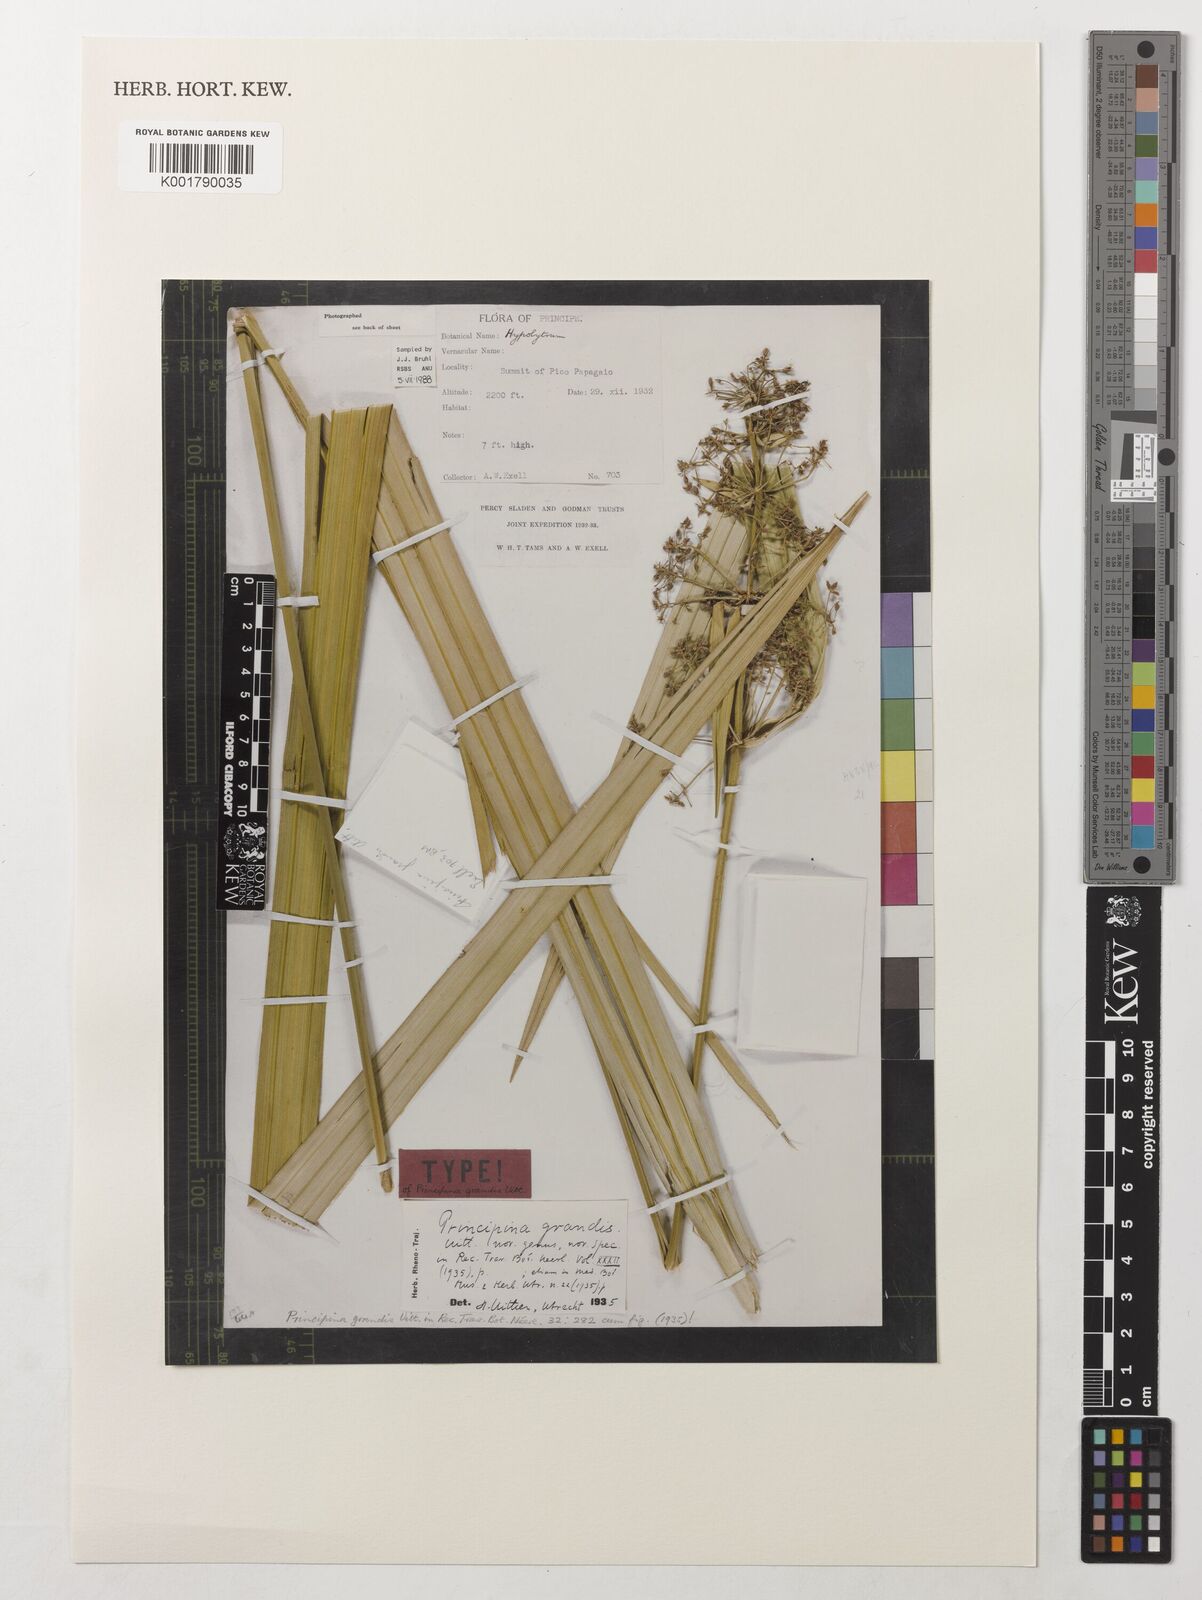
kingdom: Plantae
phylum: Tracheophyta
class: Liliopsida
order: Poales
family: Cyperaceae
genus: Principina
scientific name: Principina grandis
